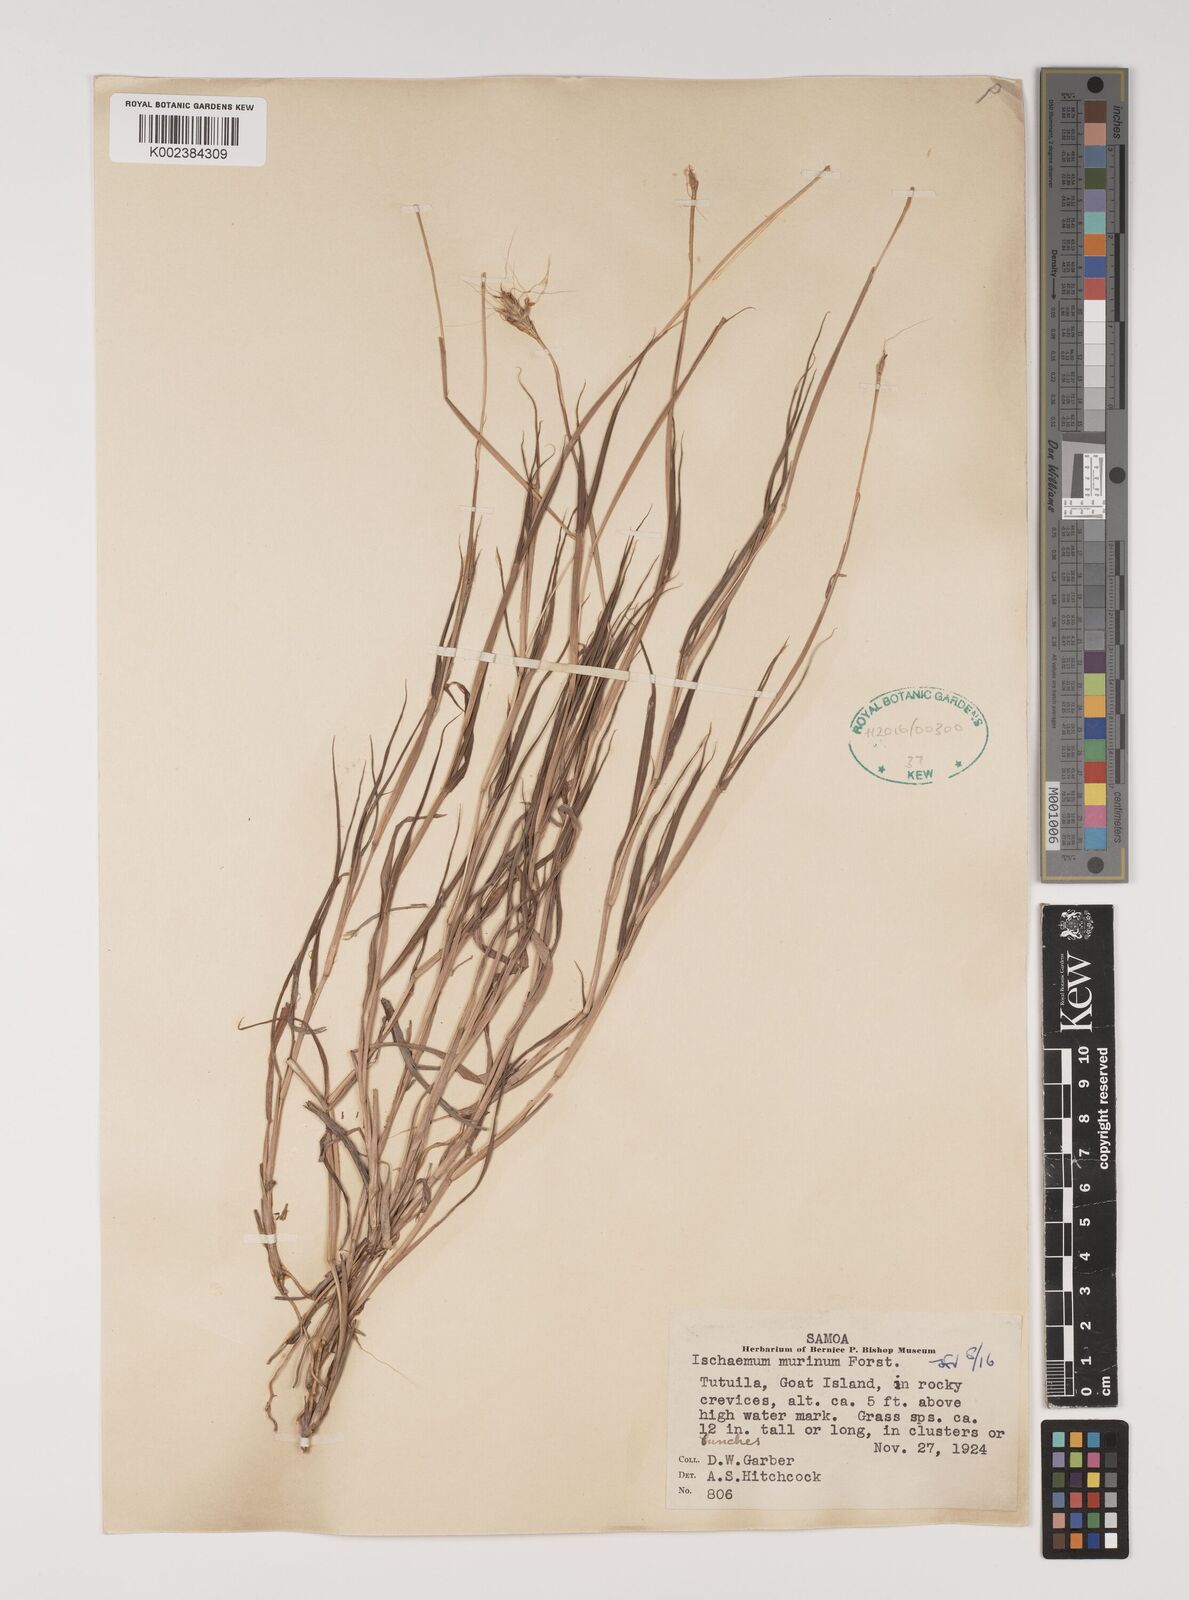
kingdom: Plantae
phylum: Tracheophyta
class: Liliopsida
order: Poales
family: Poaceae
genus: Ischaemum
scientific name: Ischaemum murinum
